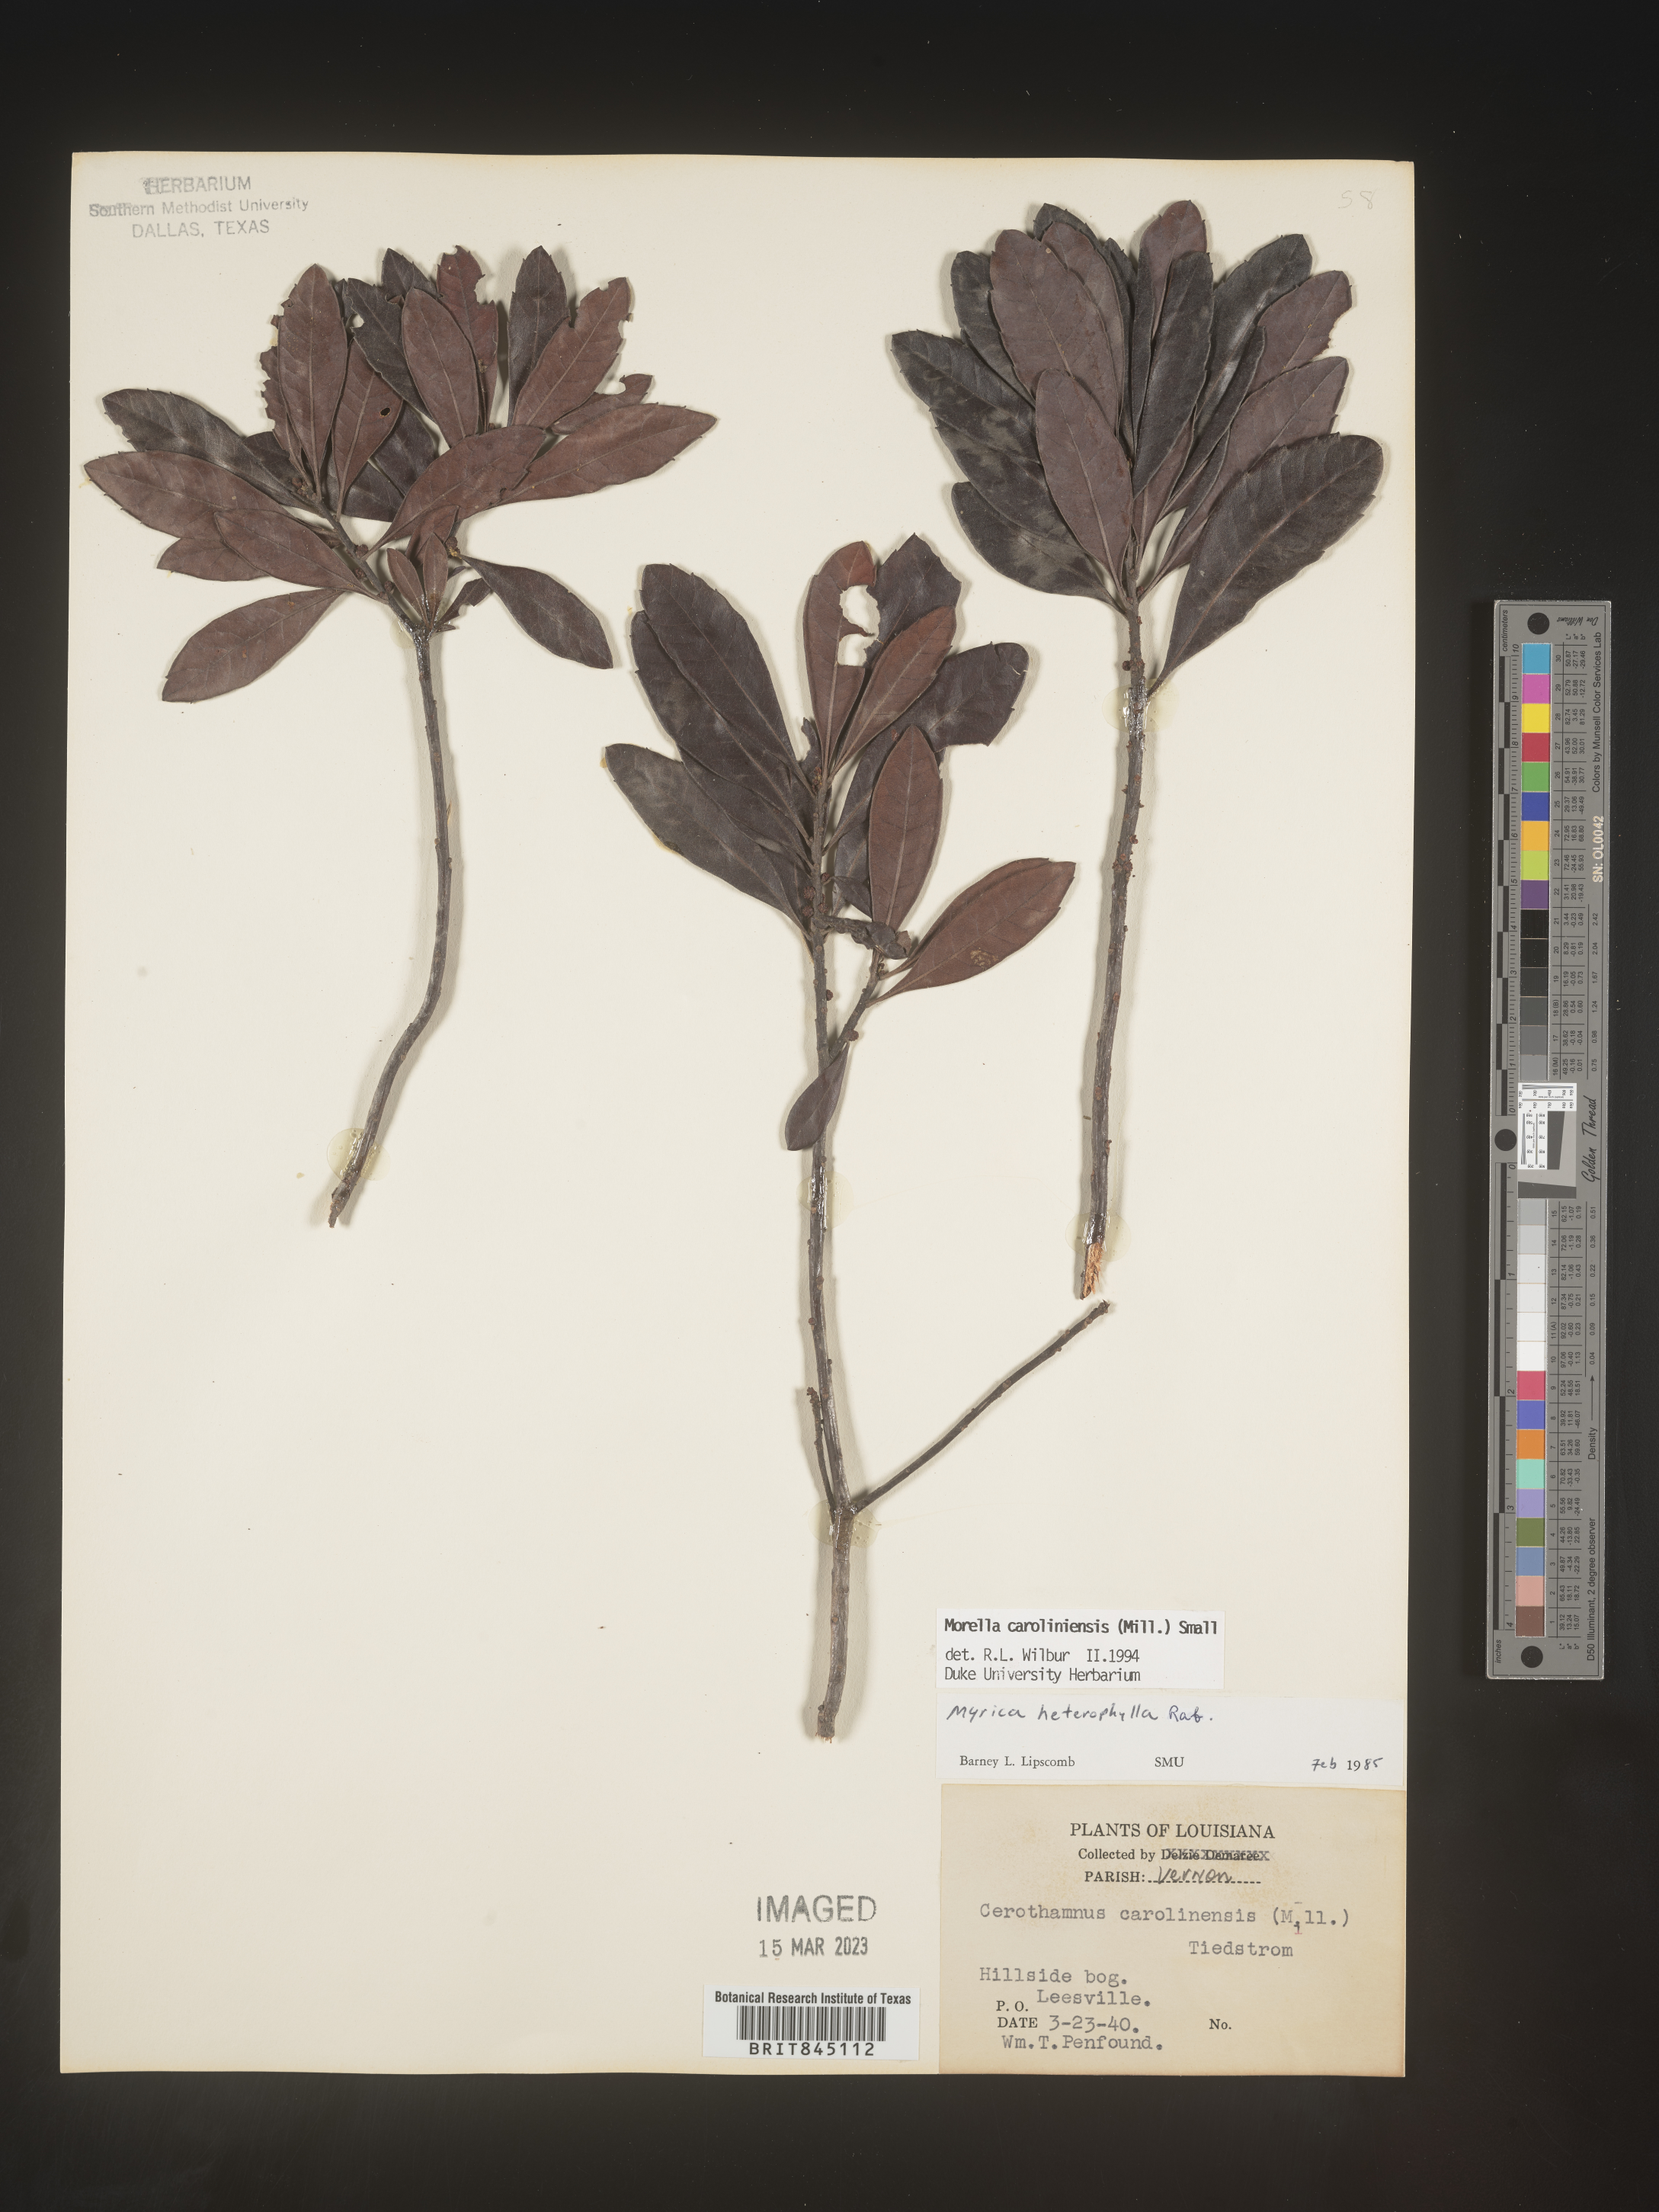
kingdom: Plantae
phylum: Tracheophyta
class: Magnoliopsida
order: Fagales
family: Myricaceae
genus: Morella
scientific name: Morella caroliniensis
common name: Evergreen bayberry
